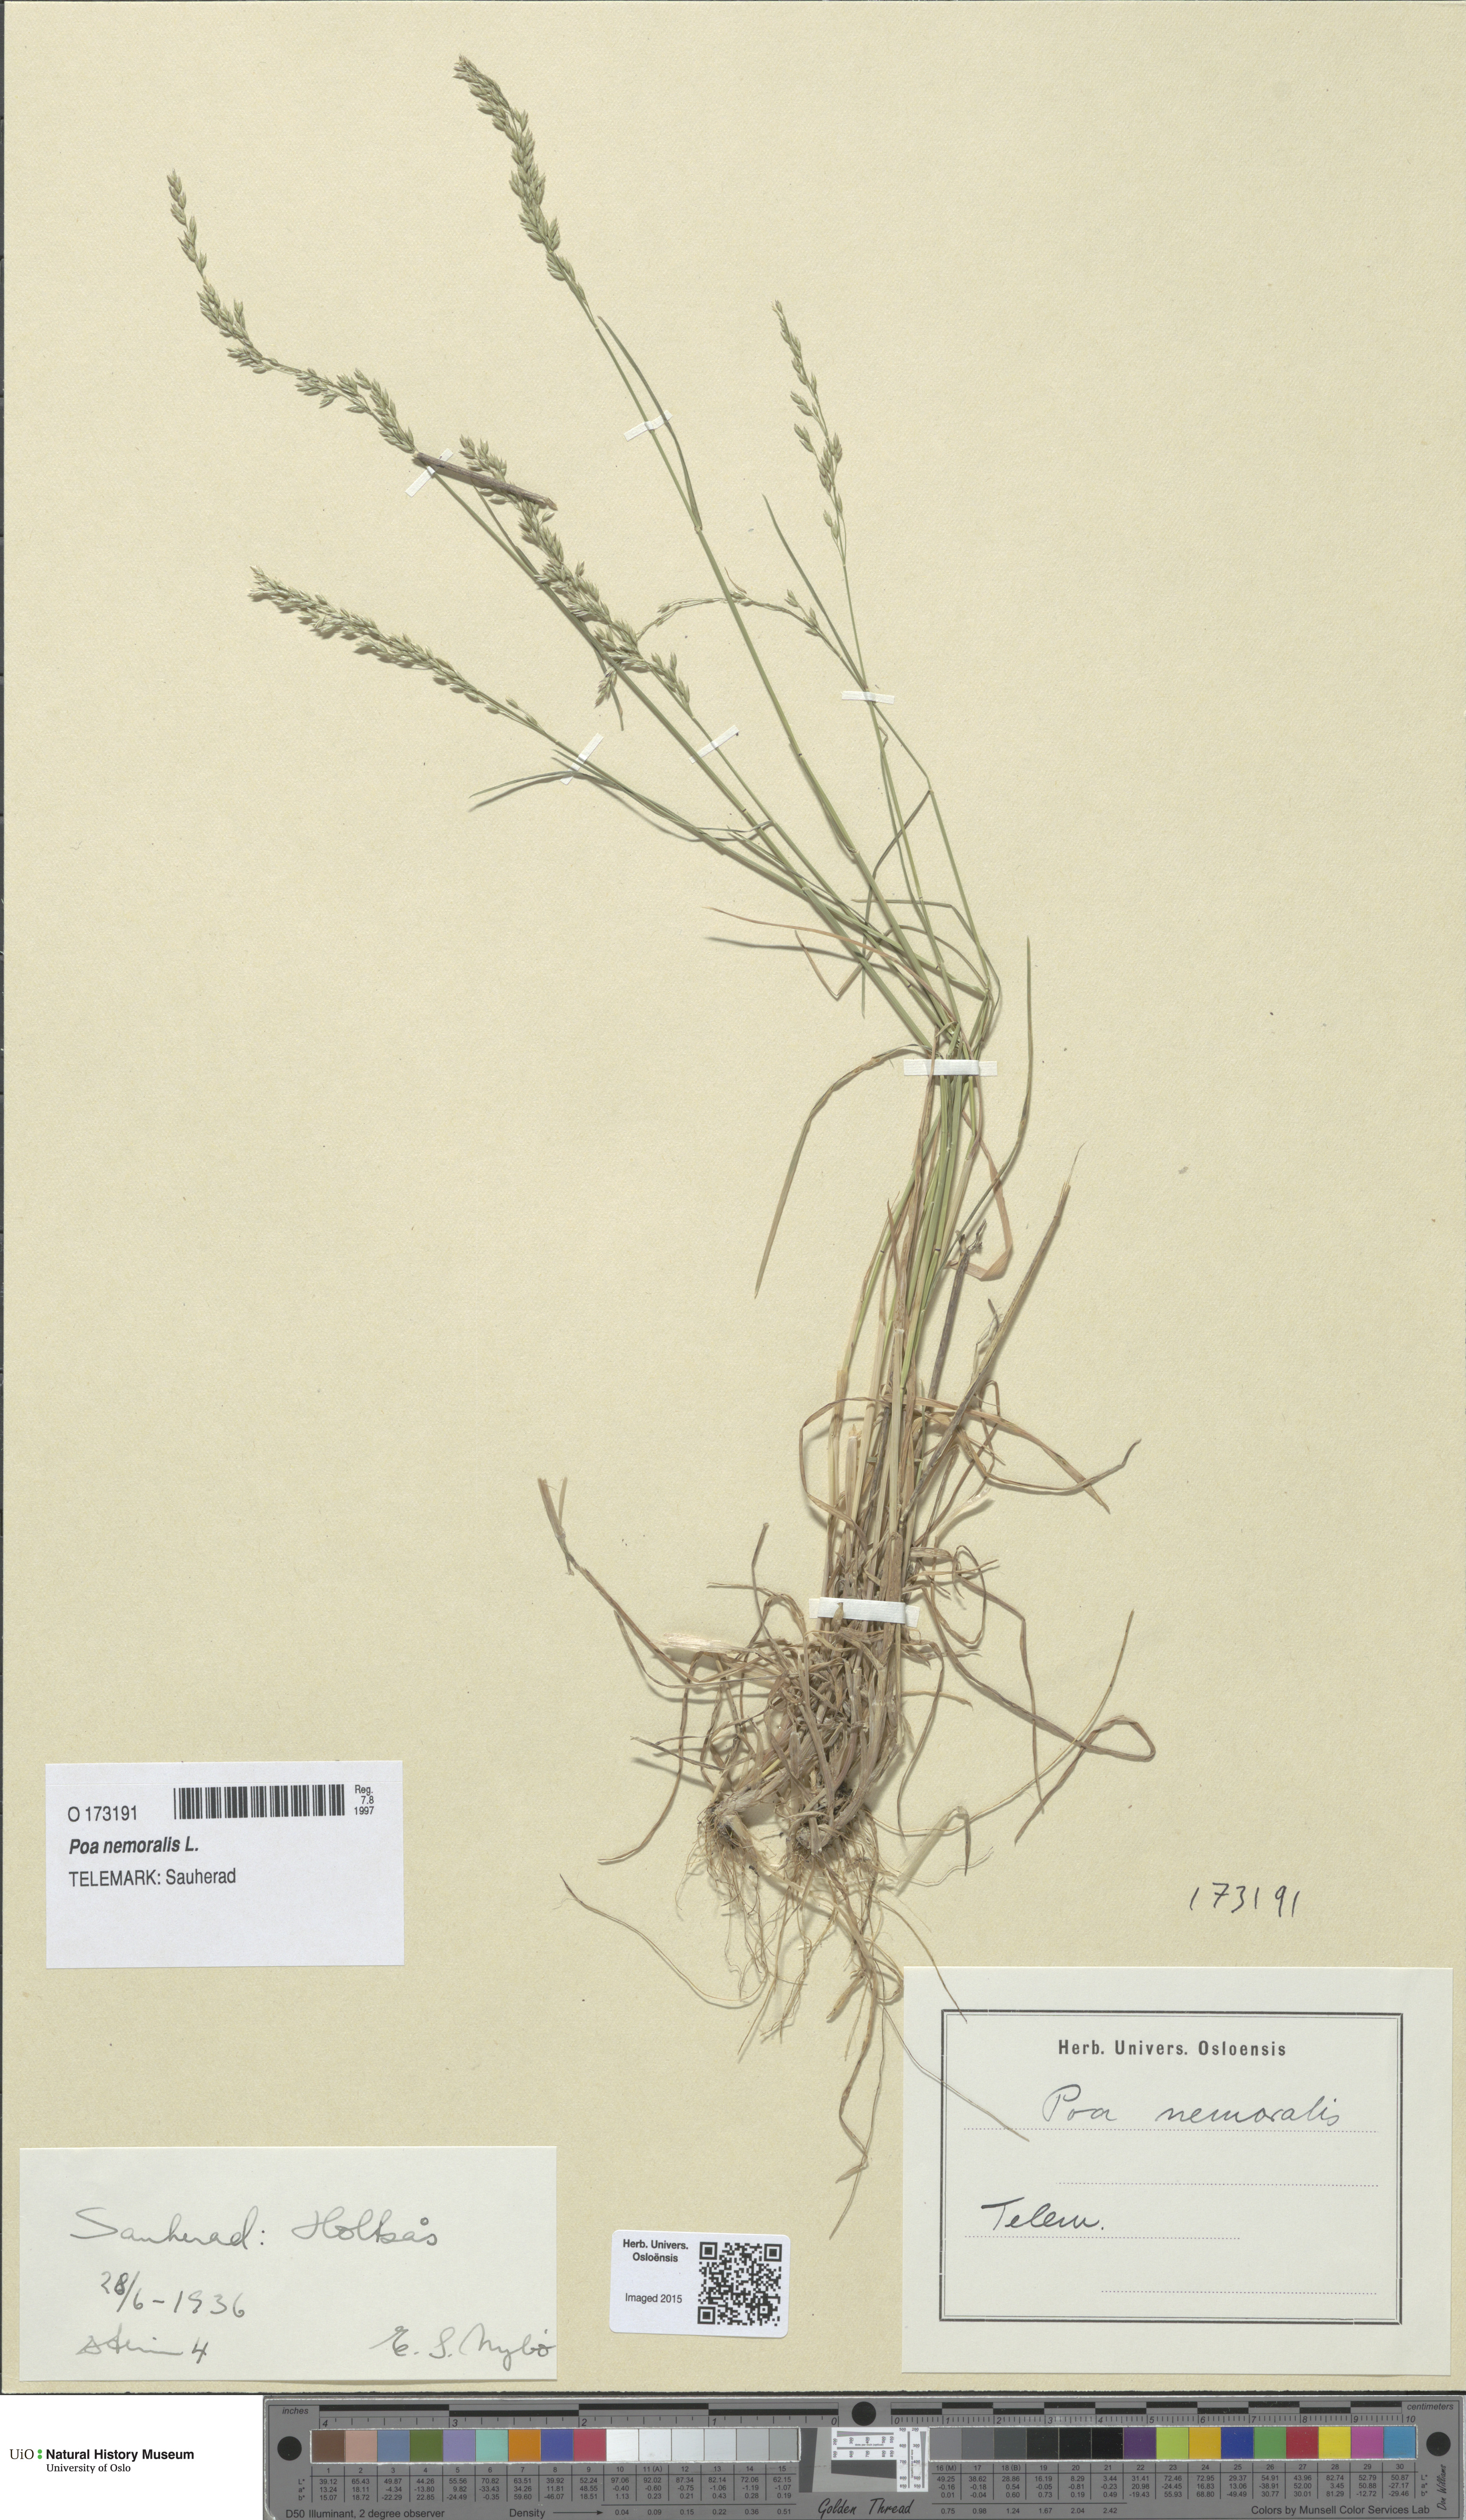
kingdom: Plantae
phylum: Tracheophyta
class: Liliopsida
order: Poales
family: Poaceae
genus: Poa
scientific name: Poa nemoralis
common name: Wood bluegrass
